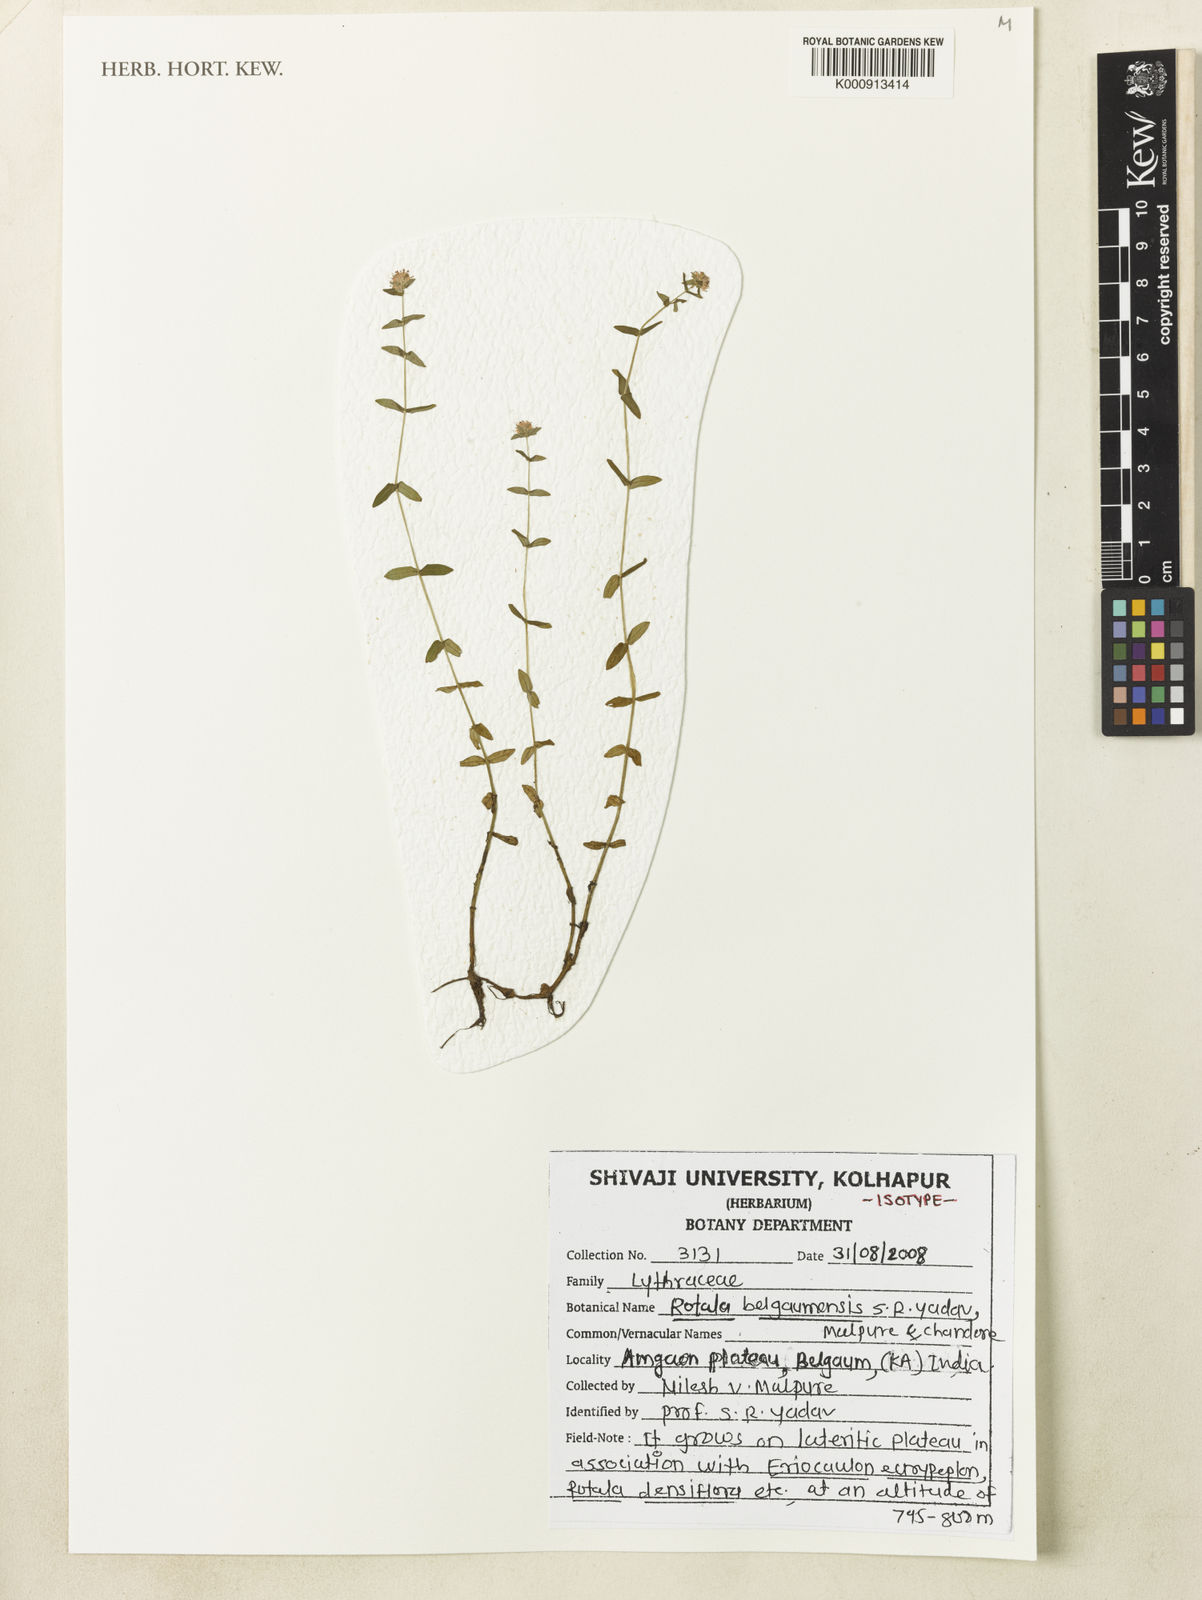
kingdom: Plantae
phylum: Tracheophyta
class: Magnoliopsida
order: Myrtales
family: Lythraceae
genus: Rotala
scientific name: Rotala belgaumensis
